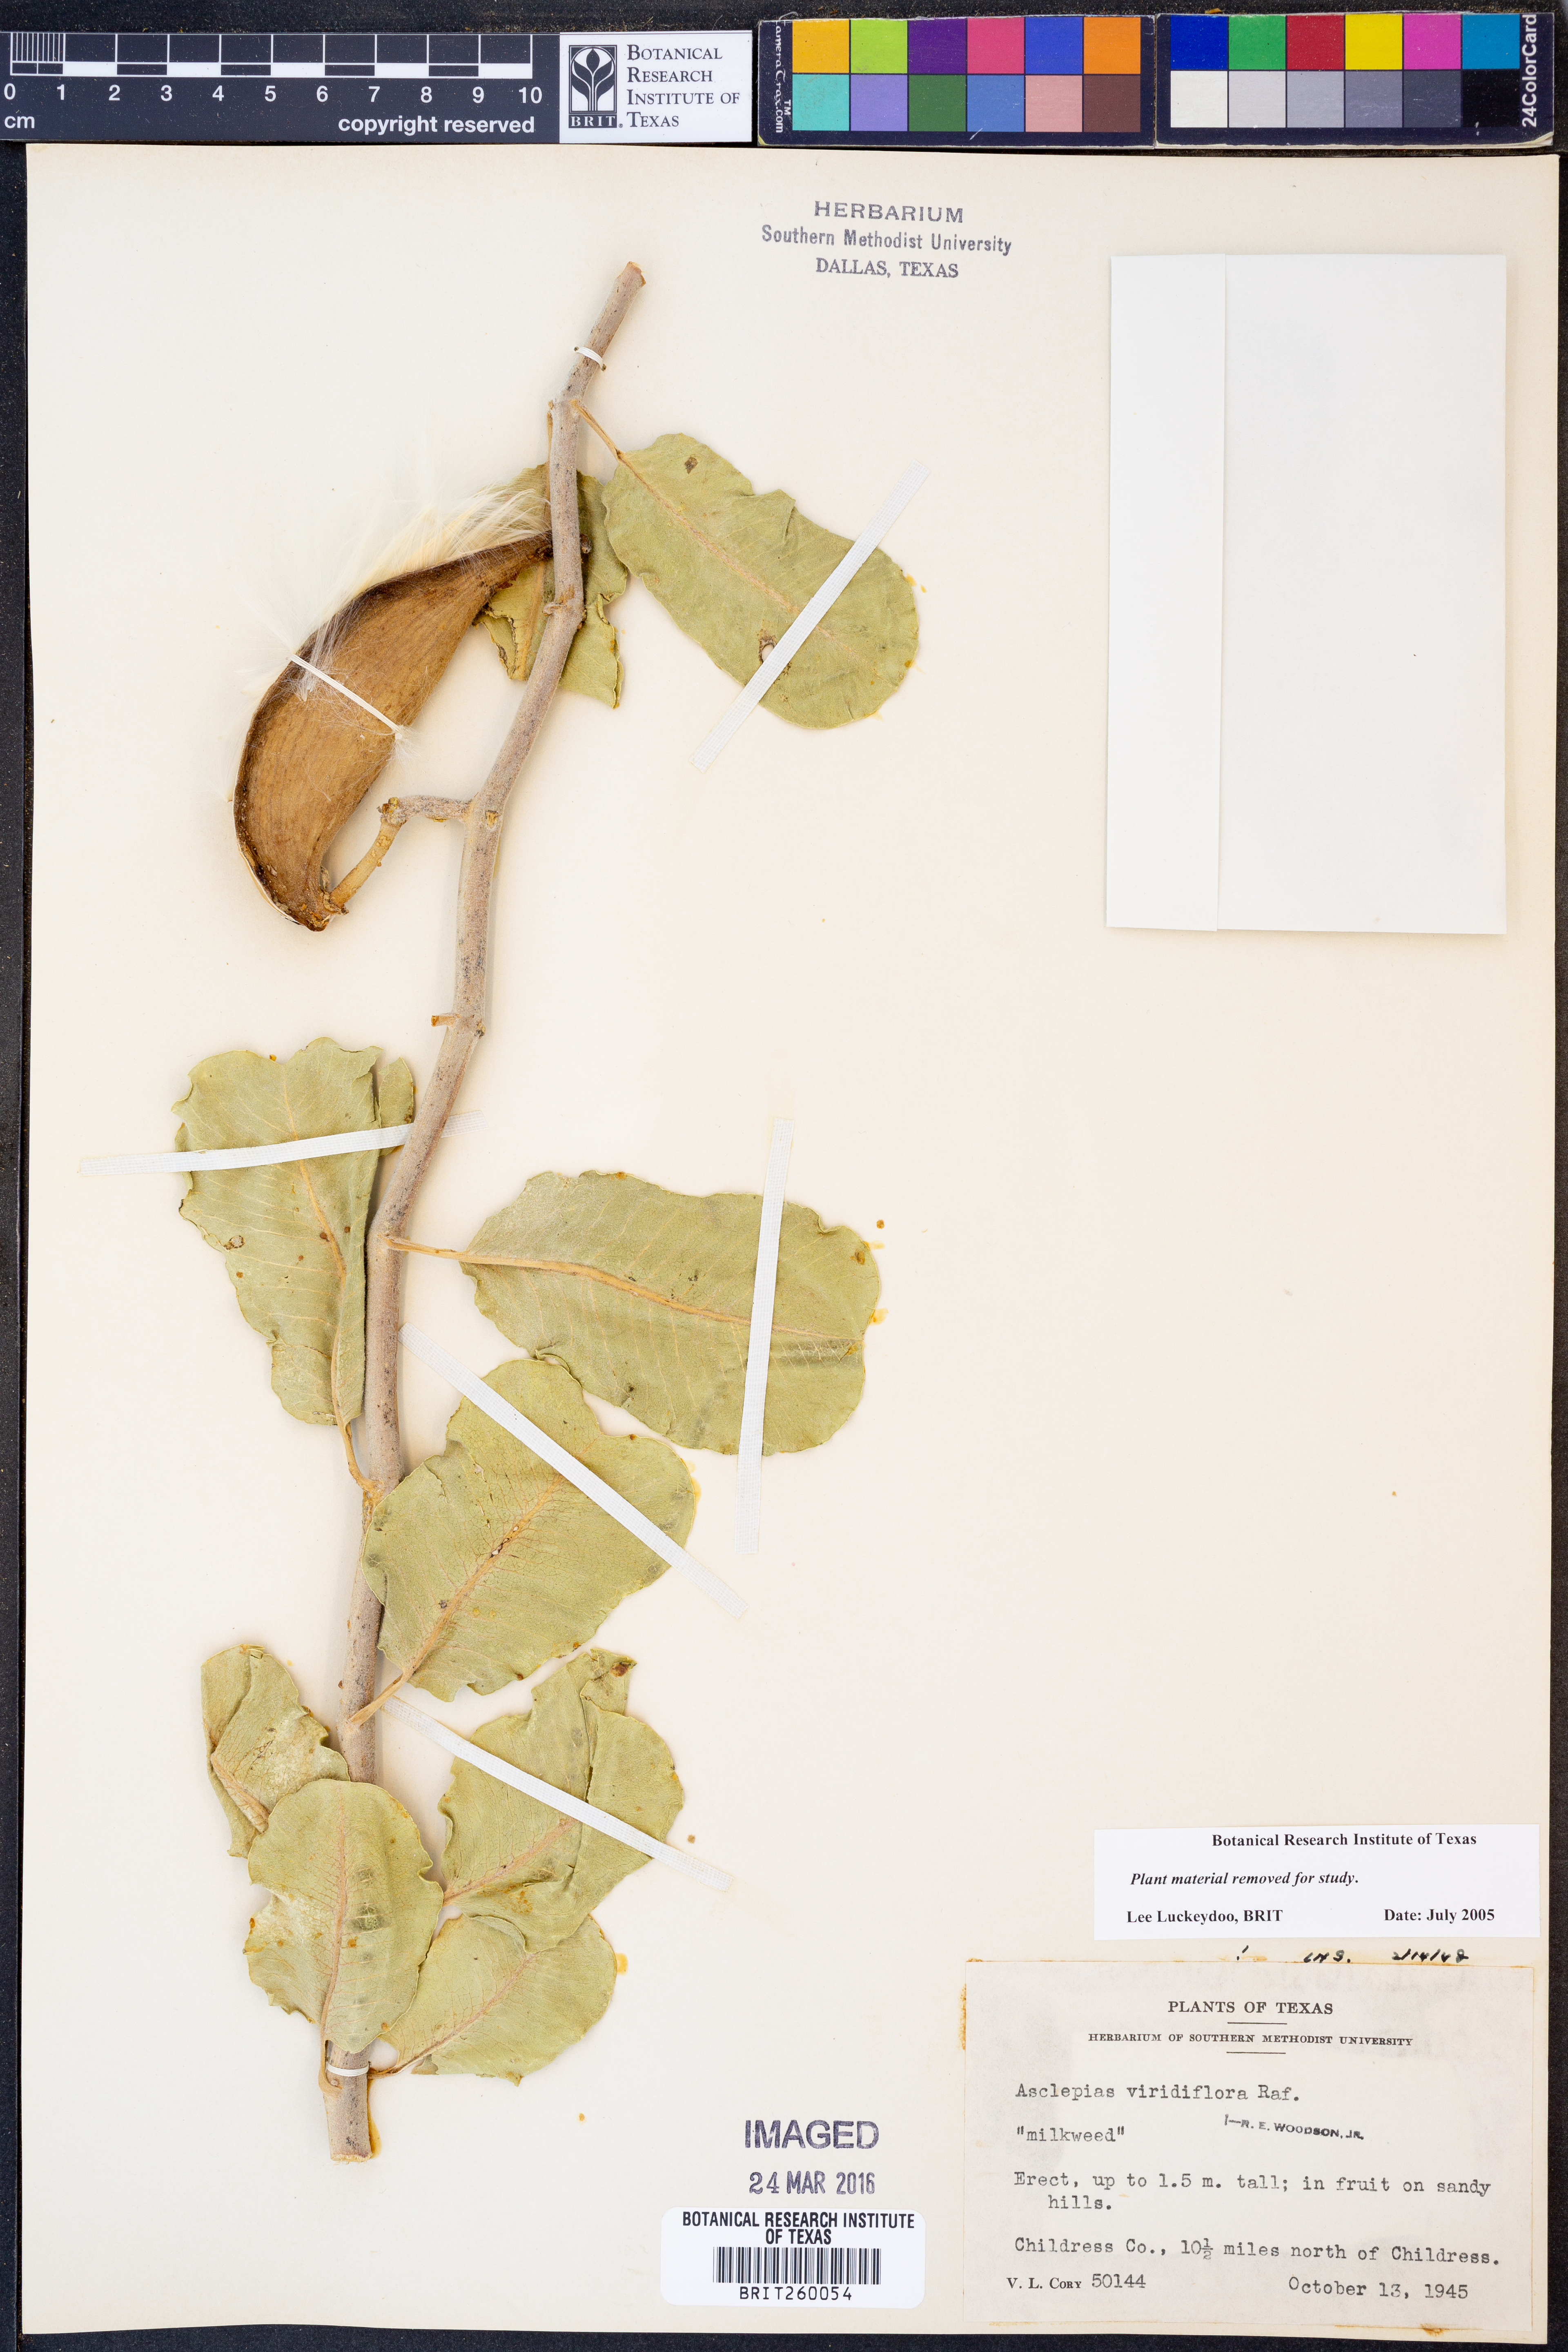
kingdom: Plantae
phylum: Tracheophyta
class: Magnoliopsida
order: Gentianales
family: Apocynaceae
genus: Asclepias
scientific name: Asclepias viridiflora
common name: Green comet milkweed
